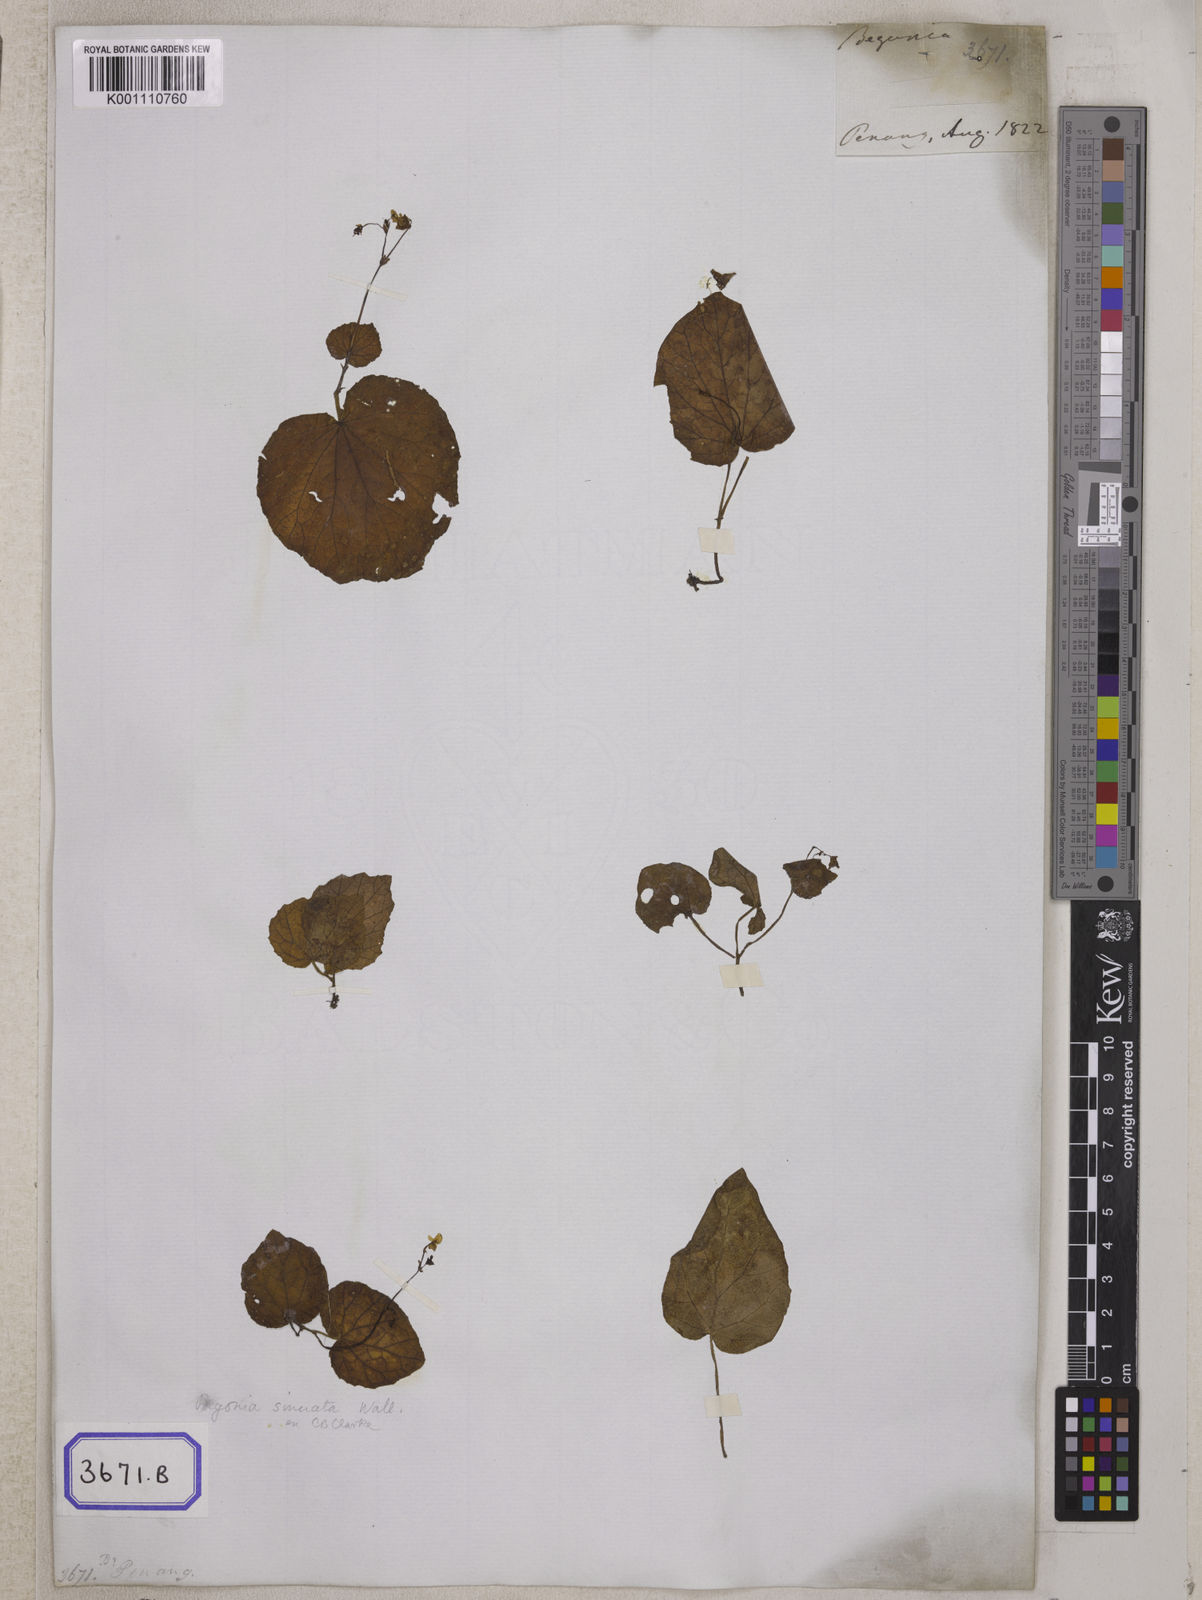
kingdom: Plantae
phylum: Tracheophyta
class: Magnoliopsida
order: Cucurbitales
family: Begoniaceae
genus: Begonia
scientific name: Begonia sinuata
